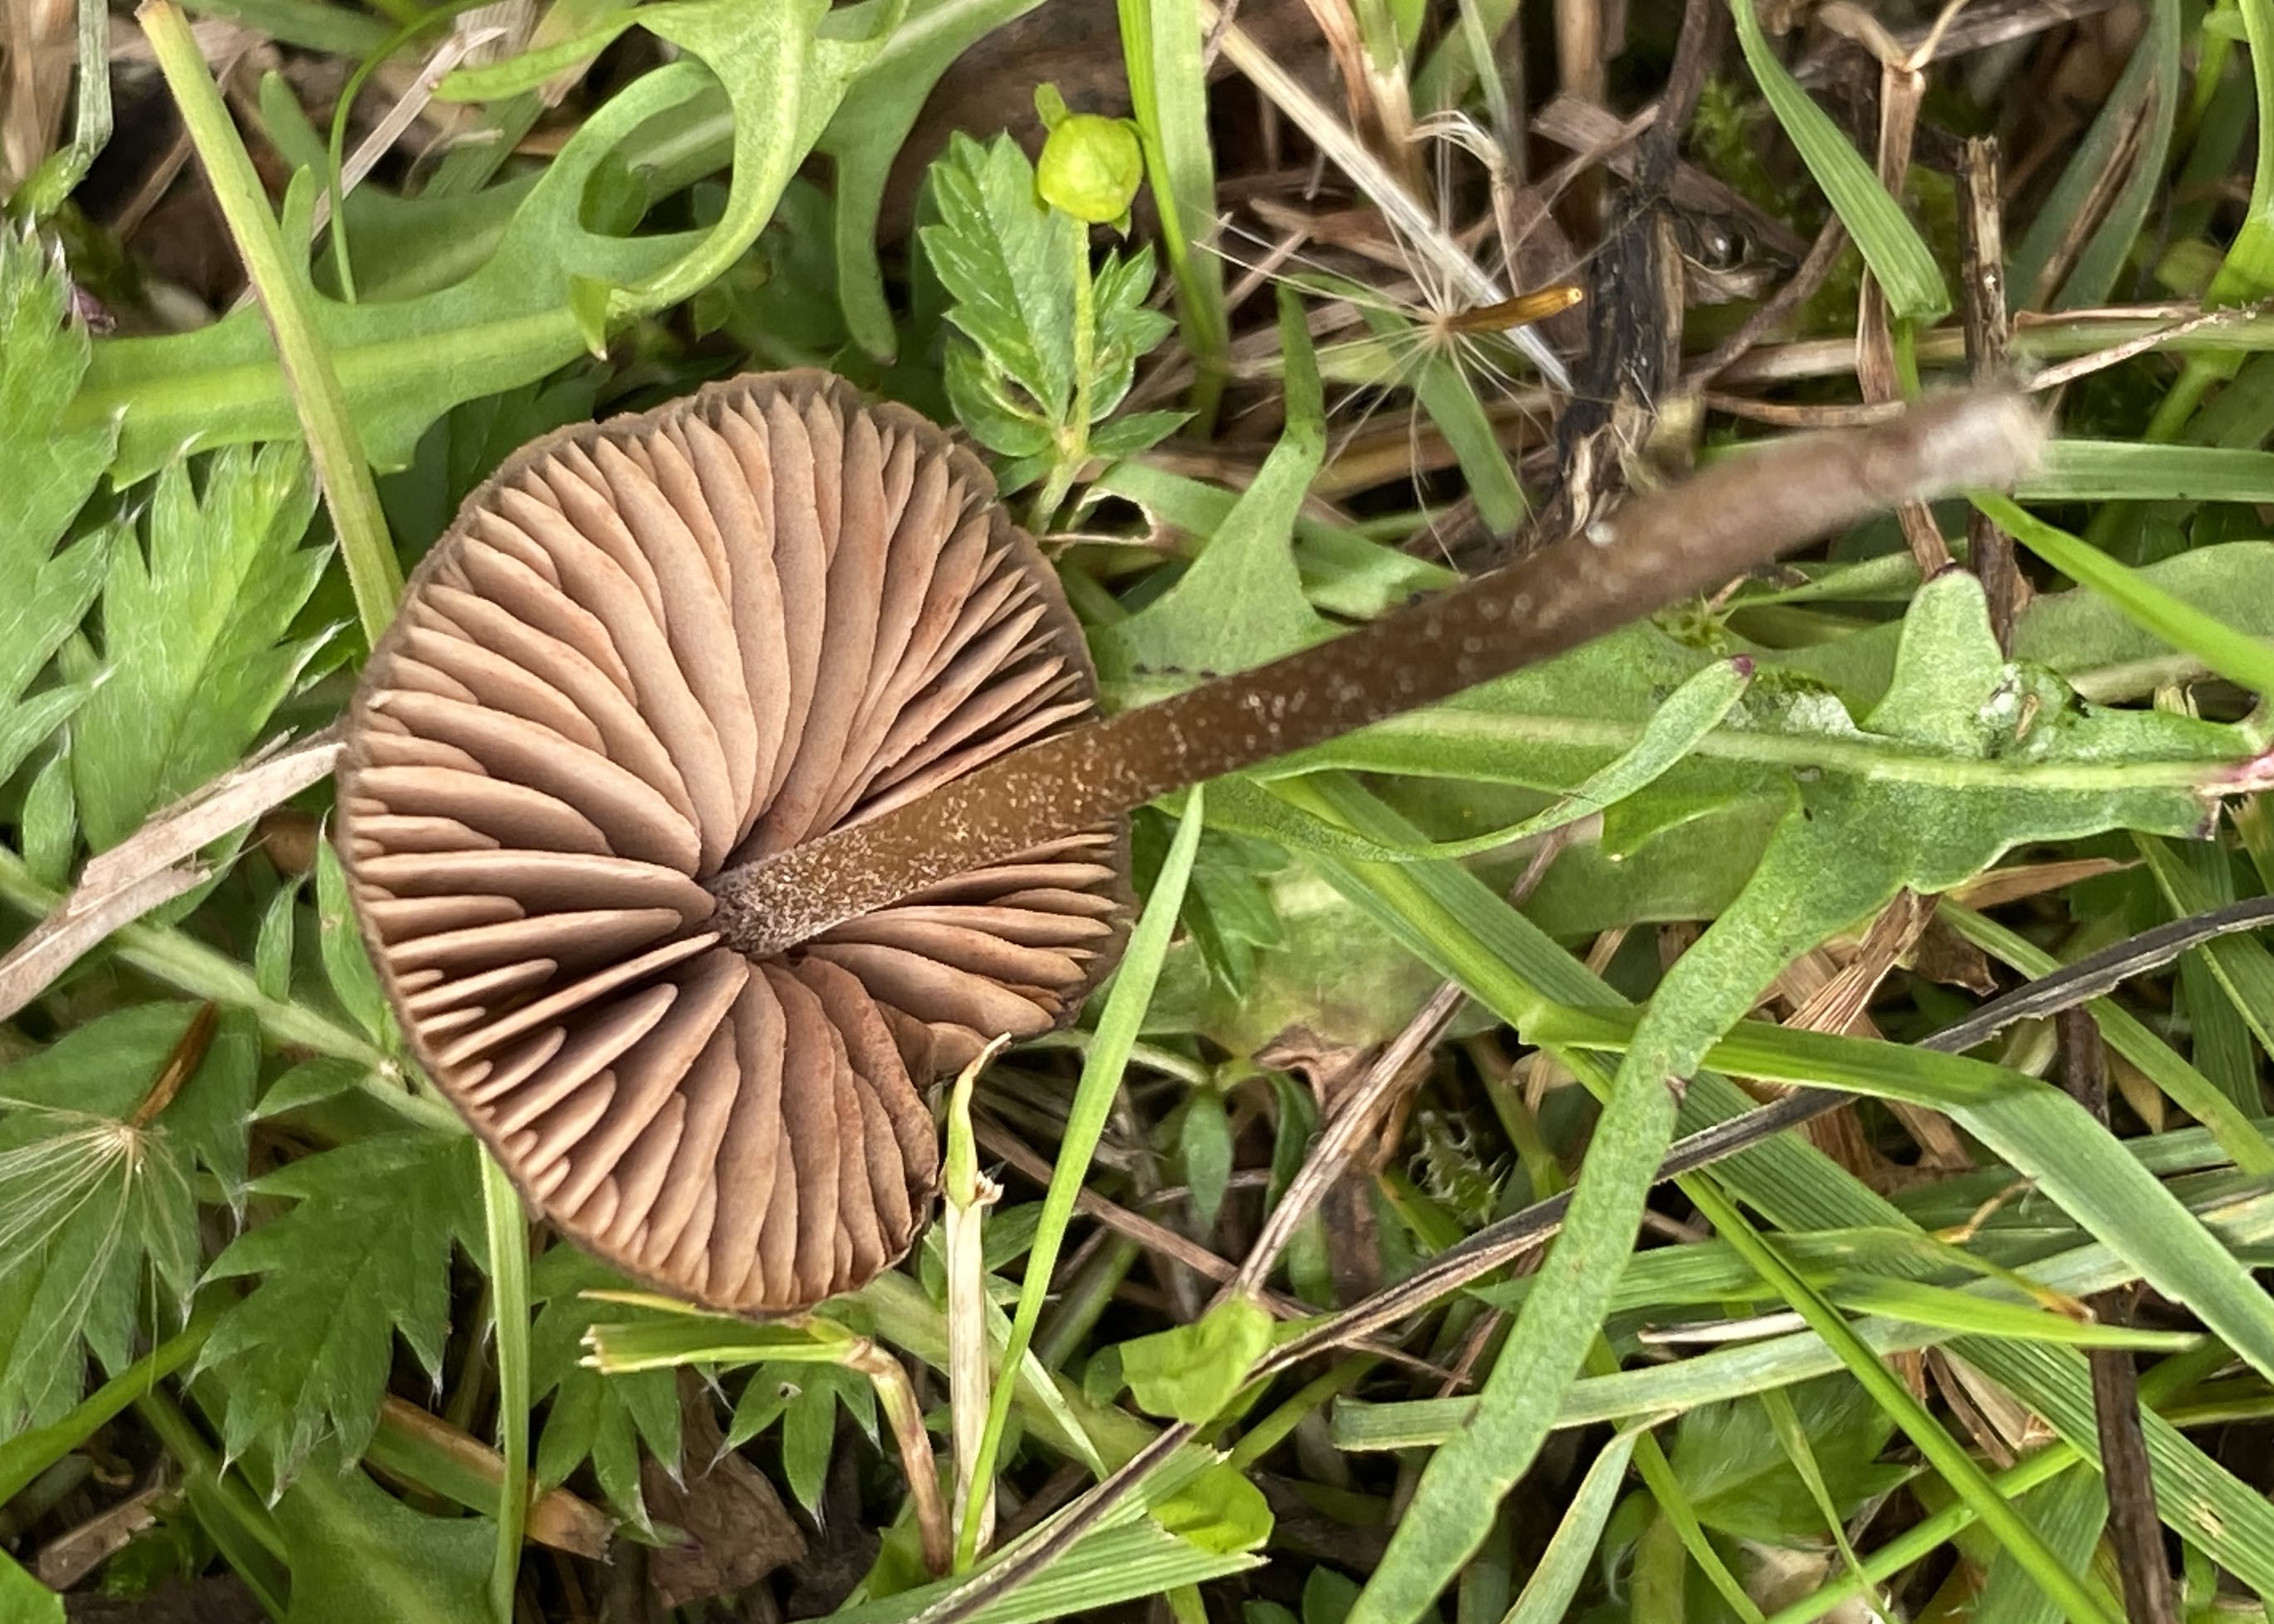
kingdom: Fungi
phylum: Basidiomycota
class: Agaricomycetes
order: Agaricales
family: Entolomataceae
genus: Entoloma
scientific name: Entoloma
